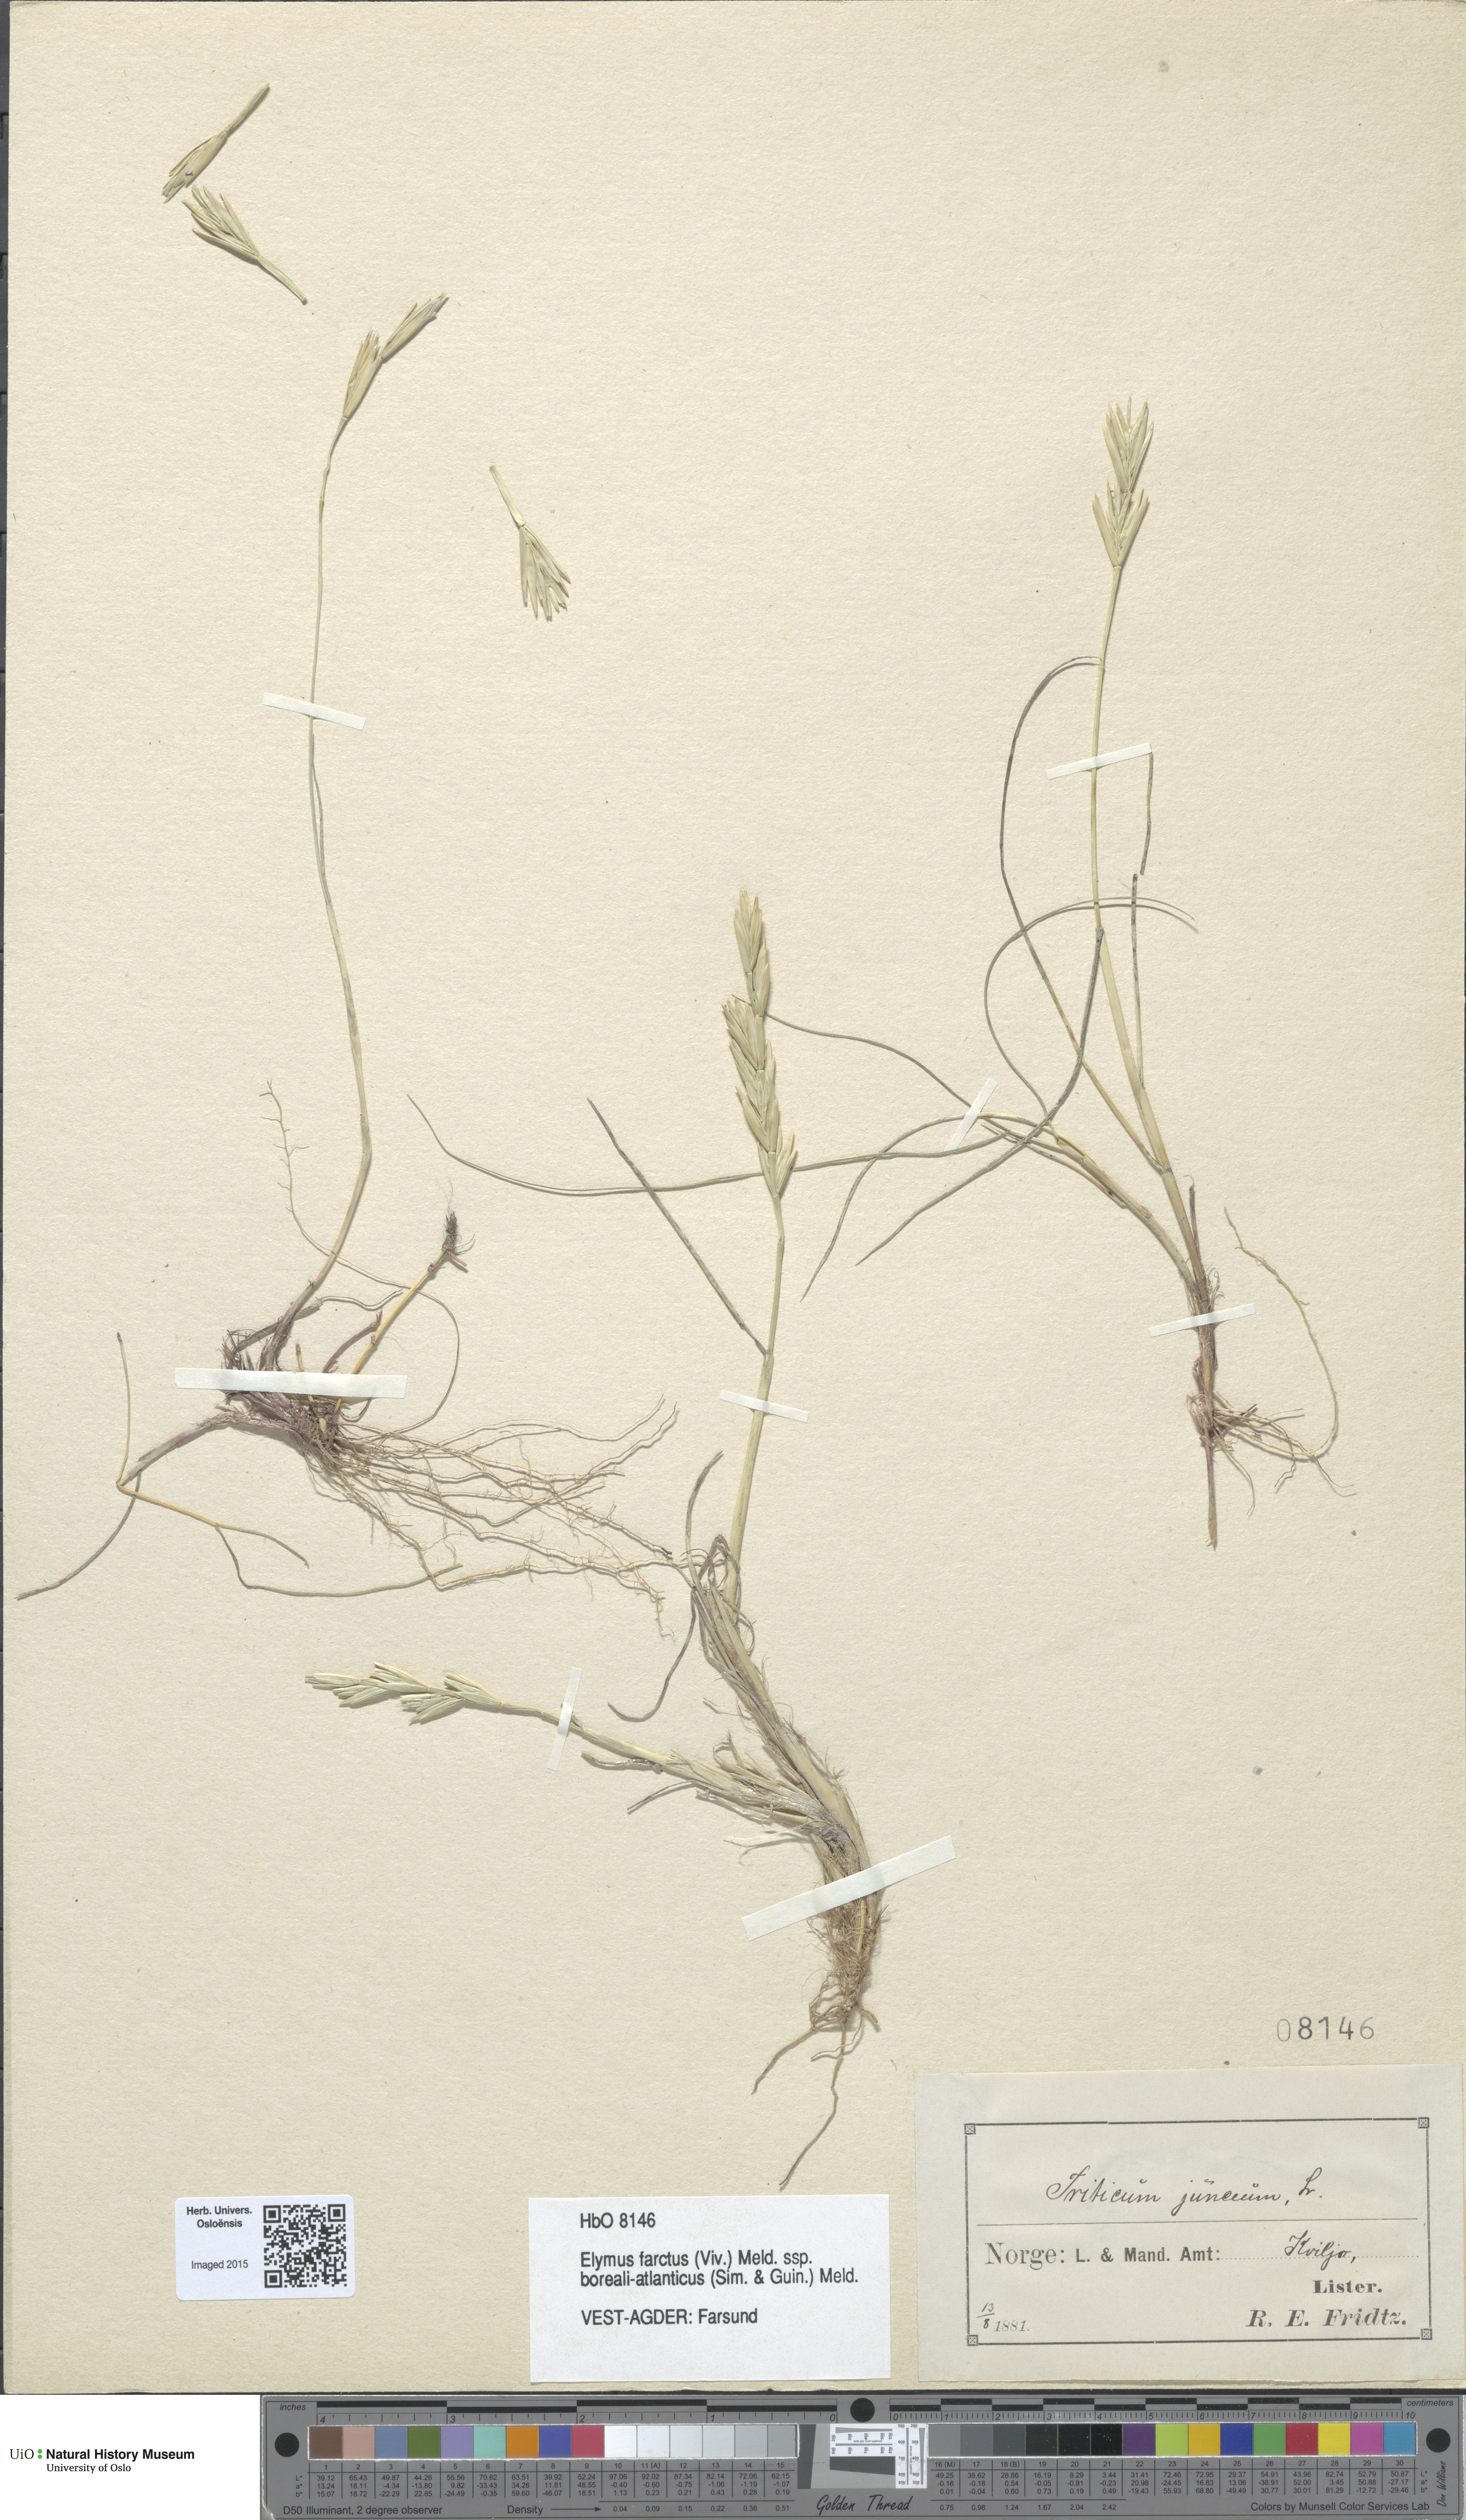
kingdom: Plantae
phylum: Tracheophyta
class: Liliopsida
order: Poales
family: Poaceae
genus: Thinopyrum
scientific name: Thinopyrum junceiforme
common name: Sea couch
